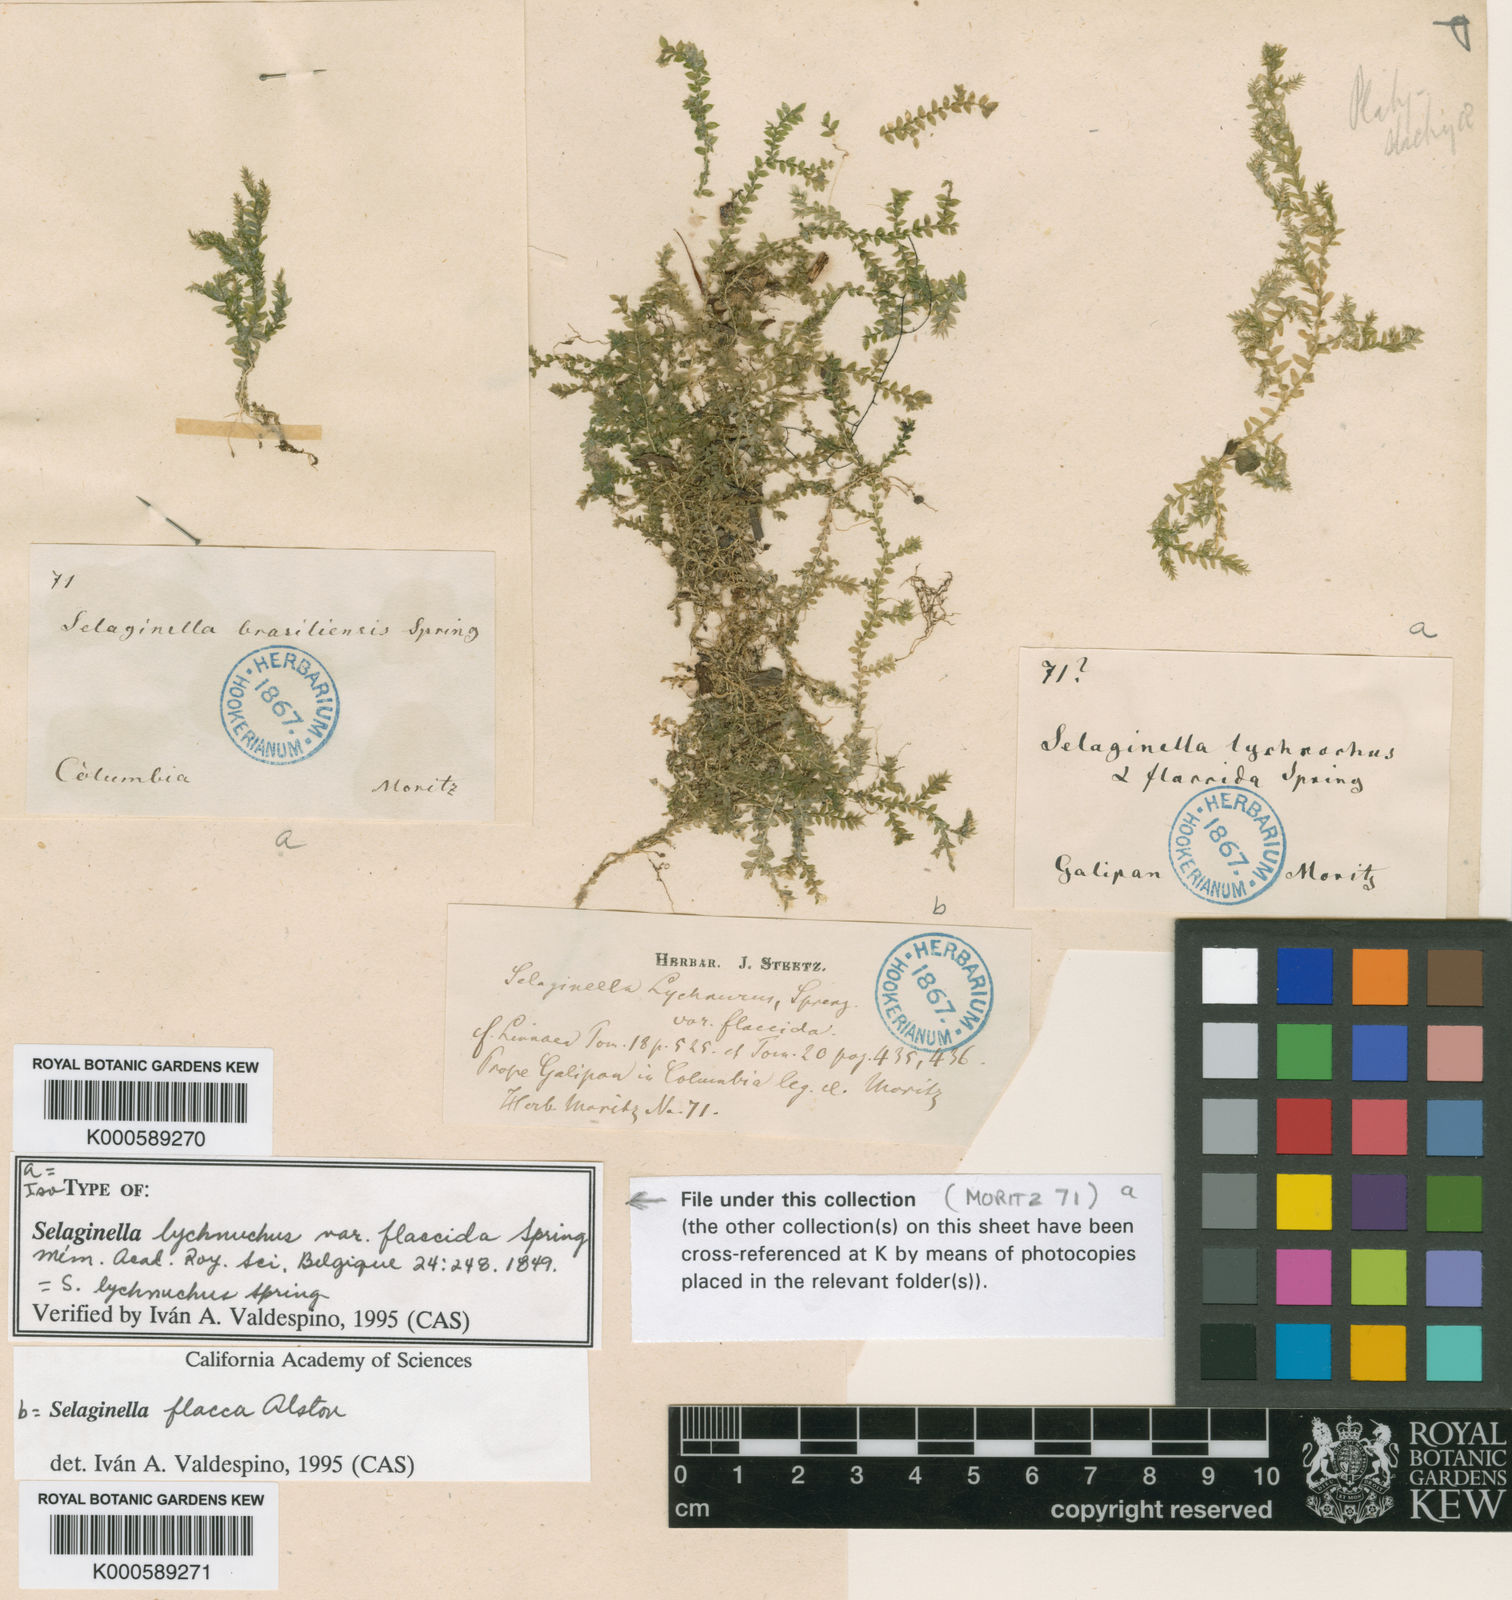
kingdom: Plantae
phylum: Tracheophyta
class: Lycopodiopsida
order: Selaginellales
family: Selaginellaceae
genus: Selaginella
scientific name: Selaginella lychnuchus
